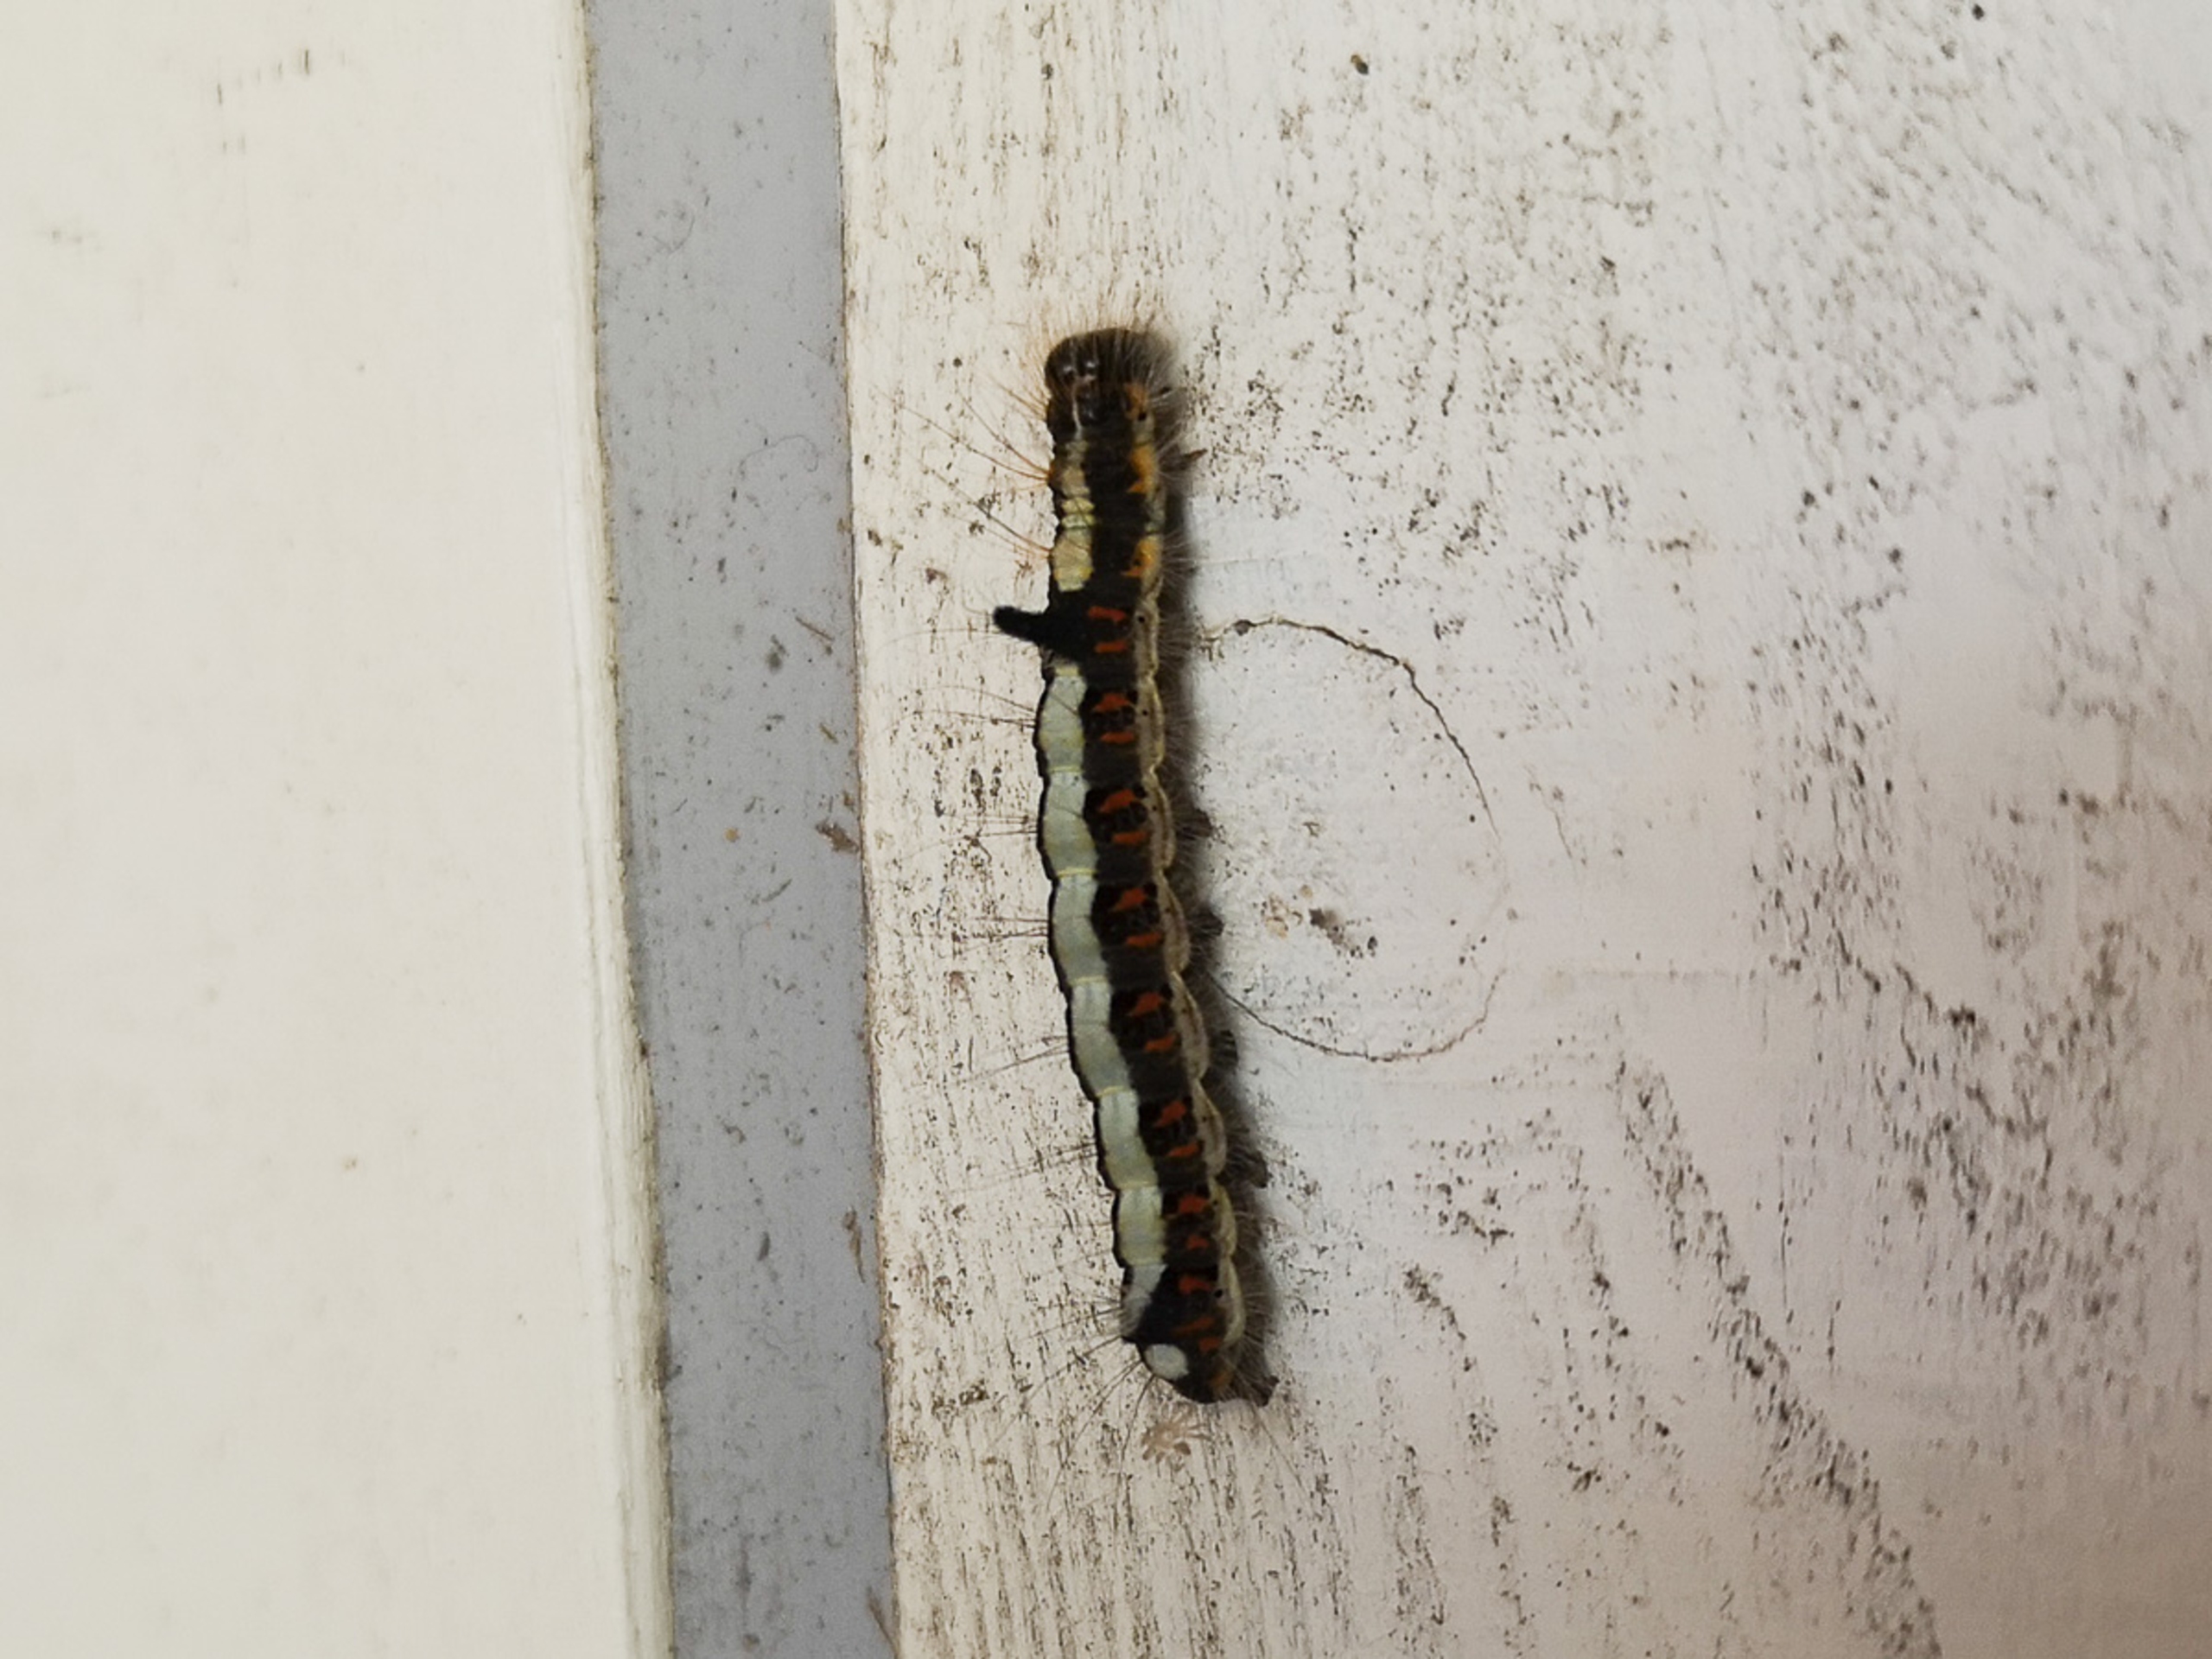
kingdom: Animalia
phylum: Arthropoda
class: Insecta
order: Lepidoptera
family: Noctuidae
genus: Acronicta
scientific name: Acronicta psi
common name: Psi-ugle
